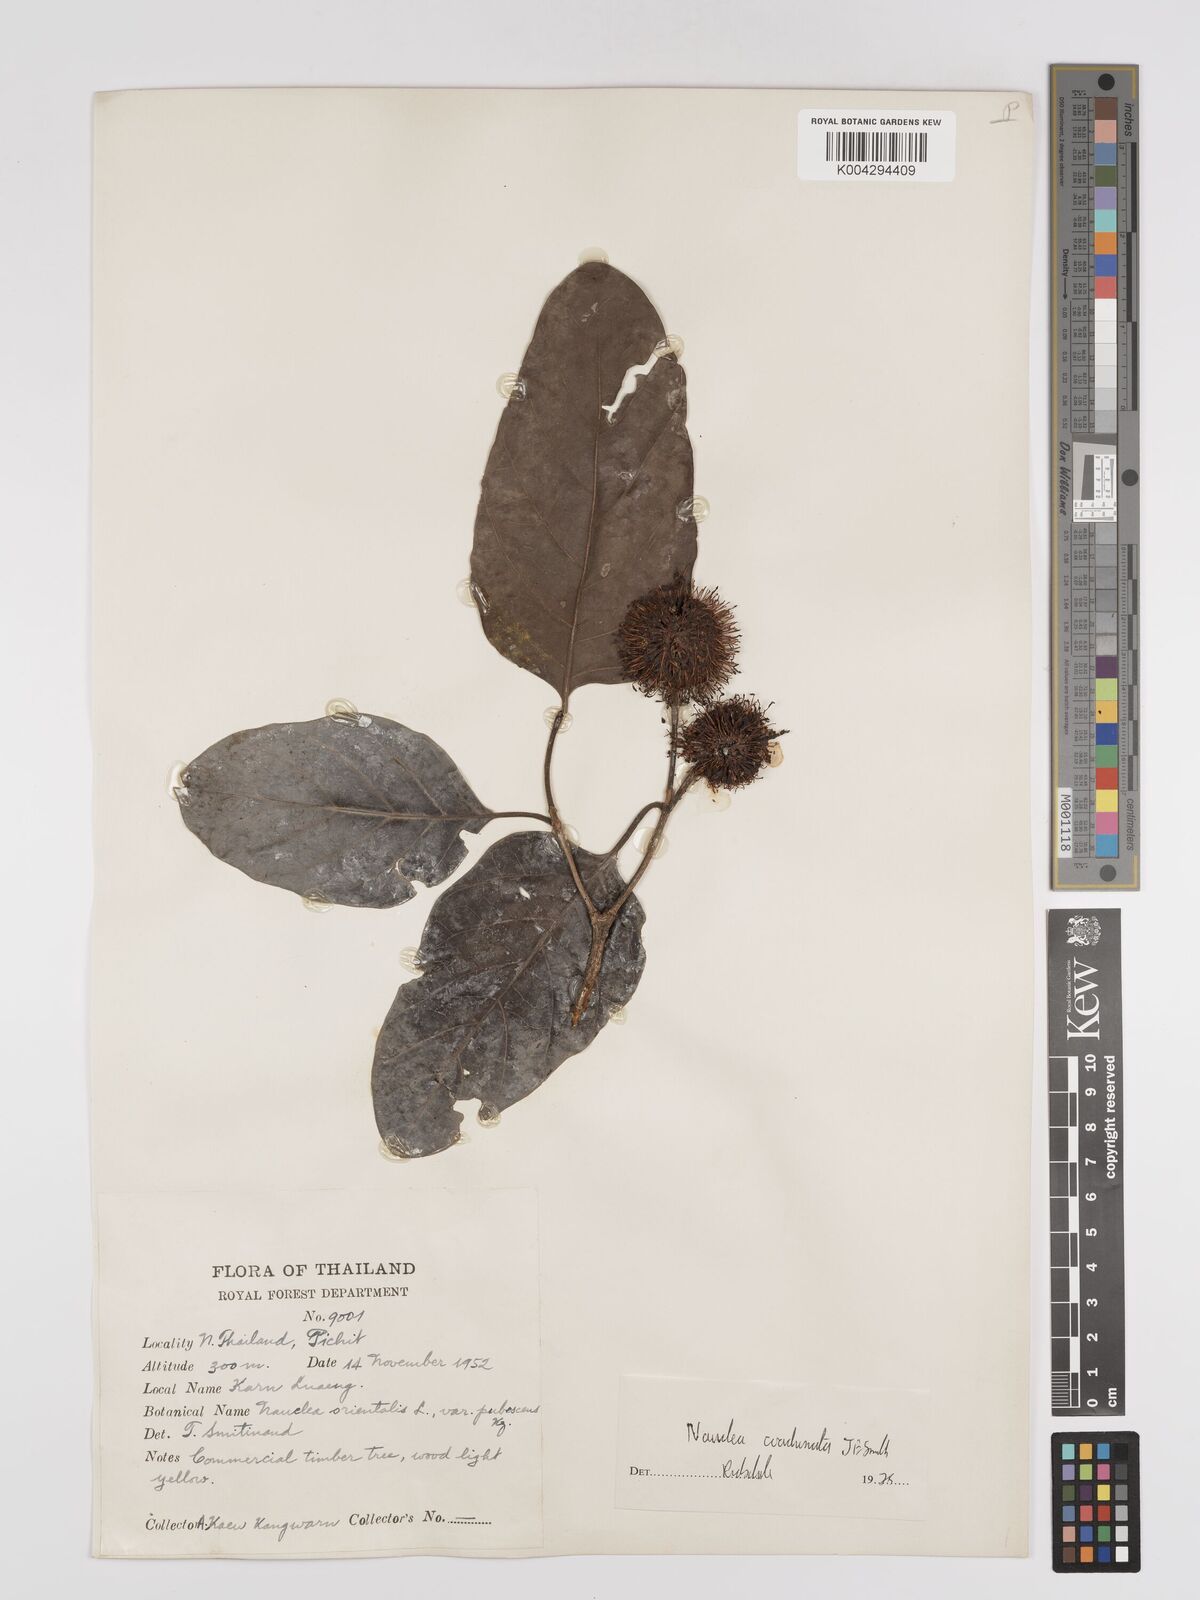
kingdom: Plantae
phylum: Tracheophyta
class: Magnoliopsida
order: Gentianales
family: Rubiaceae
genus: Nauclea
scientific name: Nauclea orientalis
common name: Leichhardt-pine
